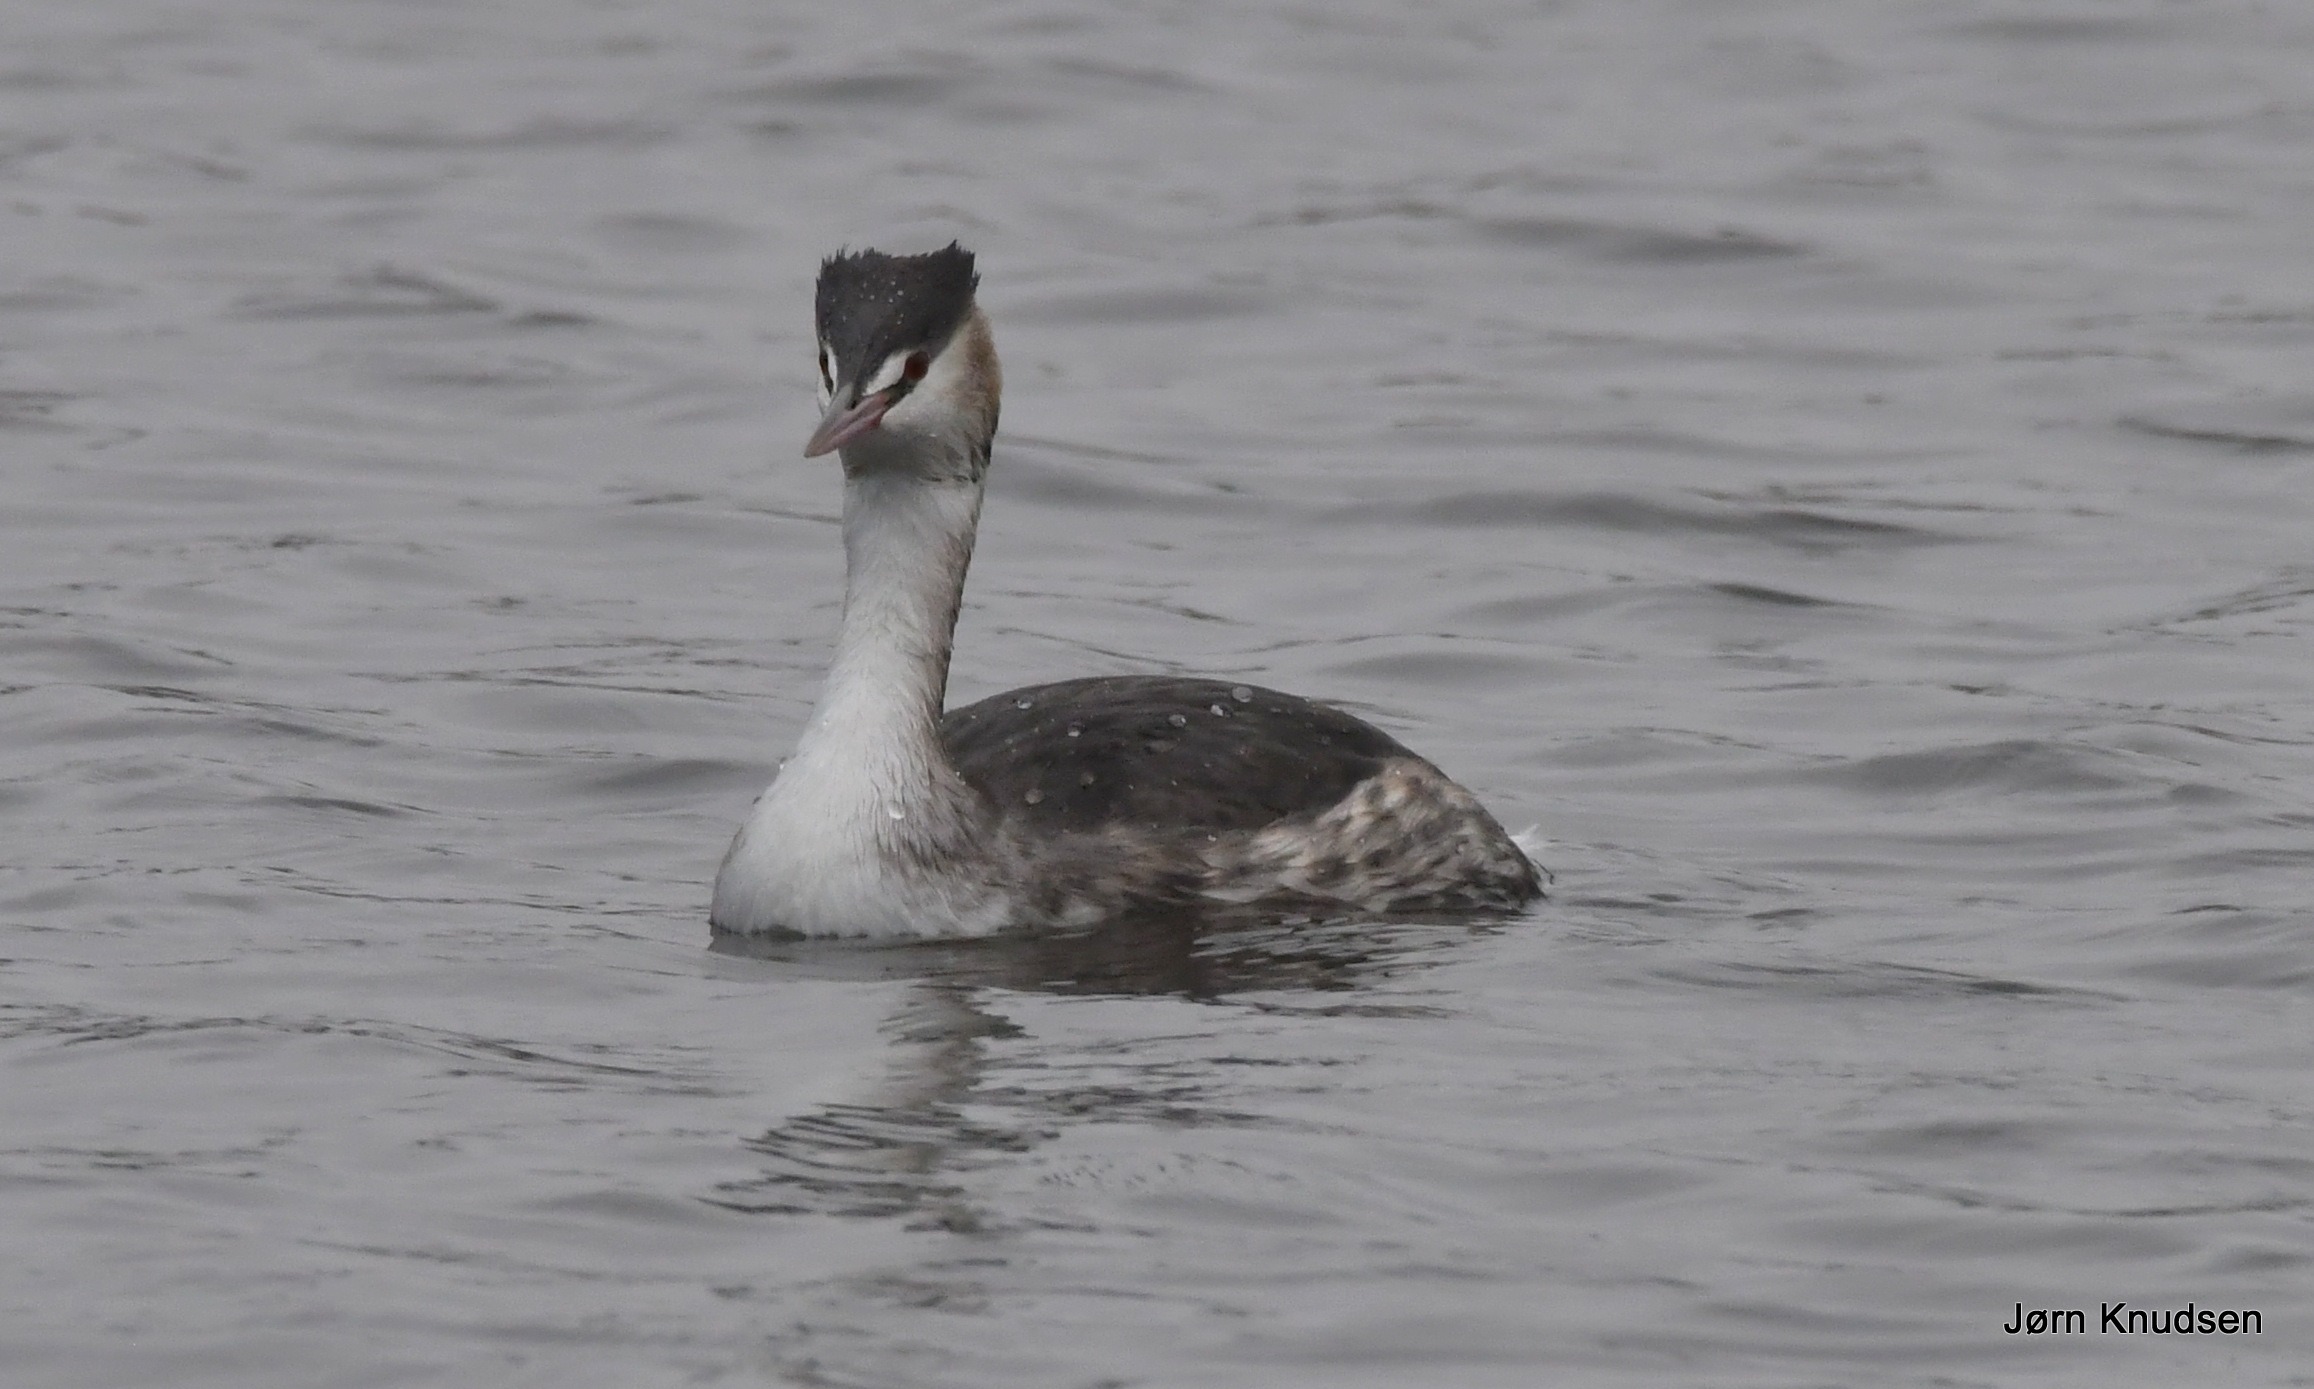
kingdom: Animalia
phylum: Chordata
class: Aves
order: Podicipediformes
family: Podicipedidae
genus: Podiceps
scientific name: Podiceps cristatus
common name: Toppet lappedykker
